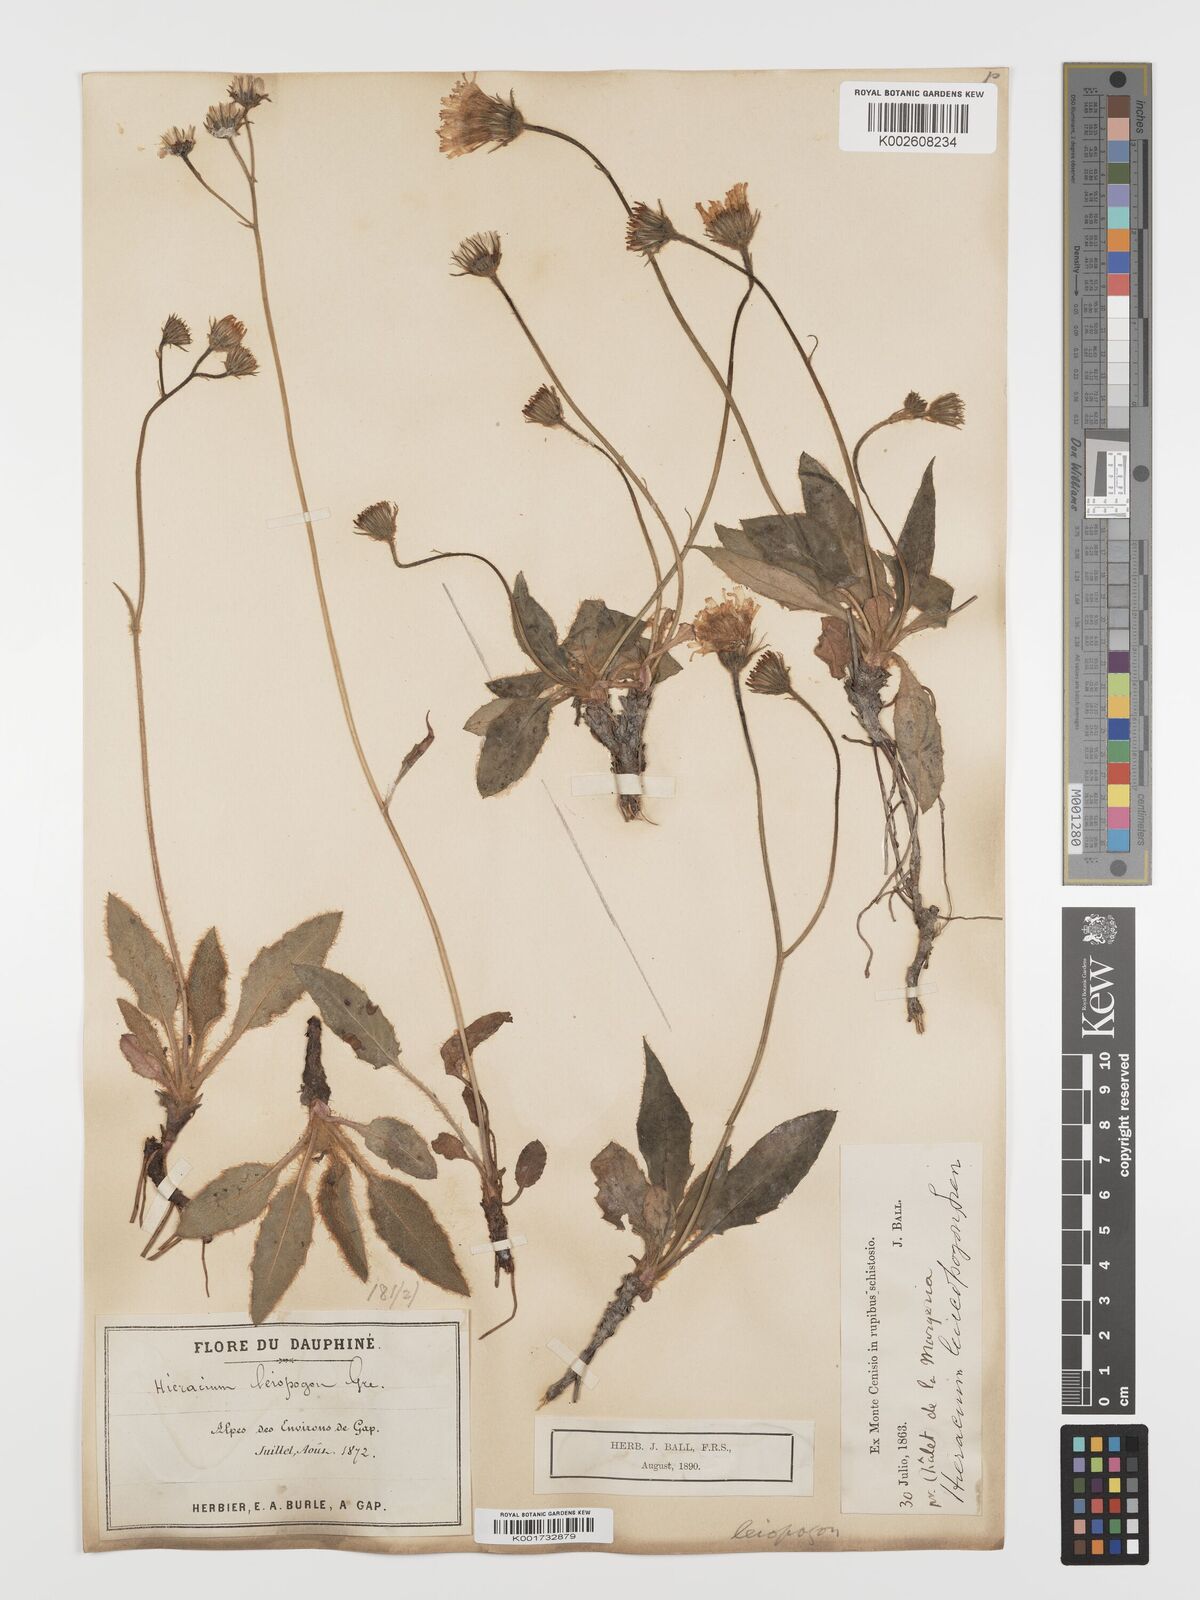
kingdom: Plantae
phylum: Tracheophyta
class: Magnoliopsida
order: Asterales
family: Asteraceae
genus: Hieracium
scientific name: Hieracium leiopogon
